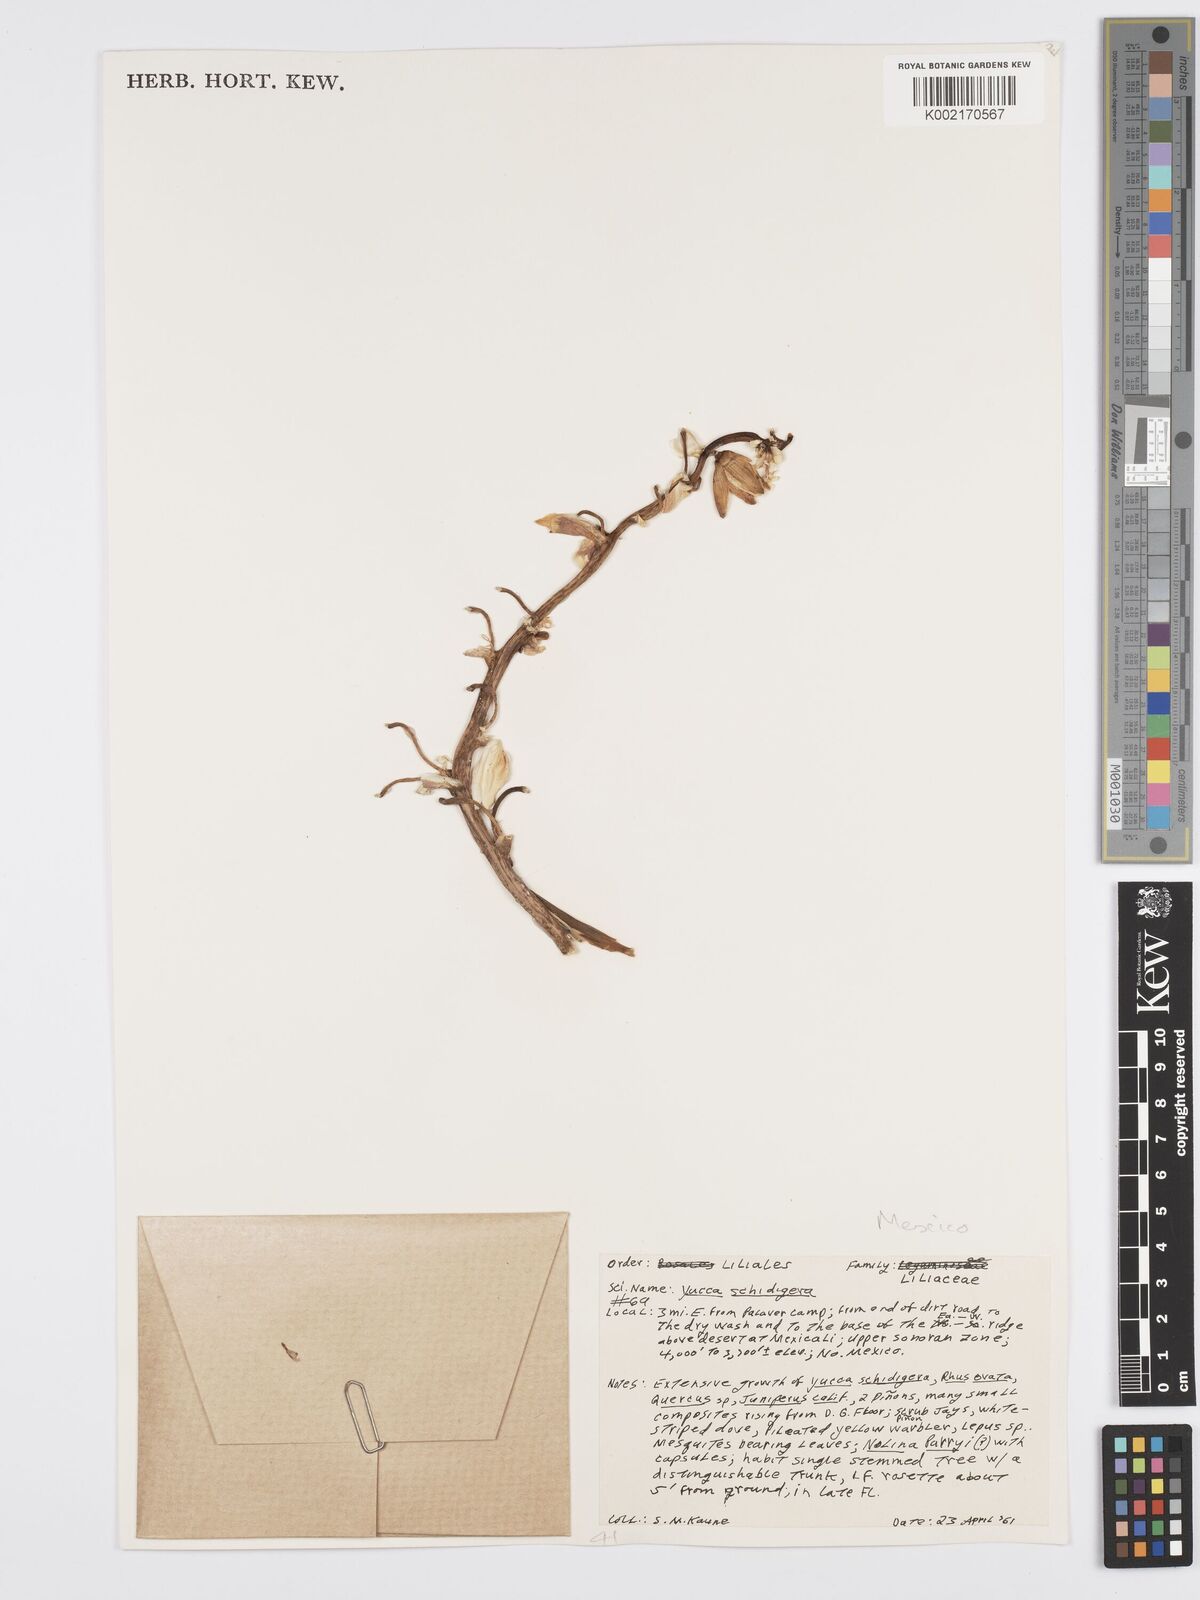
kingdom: Plantae
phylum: Tracheophyta
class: Liliopsida
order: Asparagales
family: Asparagaceae
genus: Yucca
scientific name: Yucca schidigera
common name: Mojave yucca
